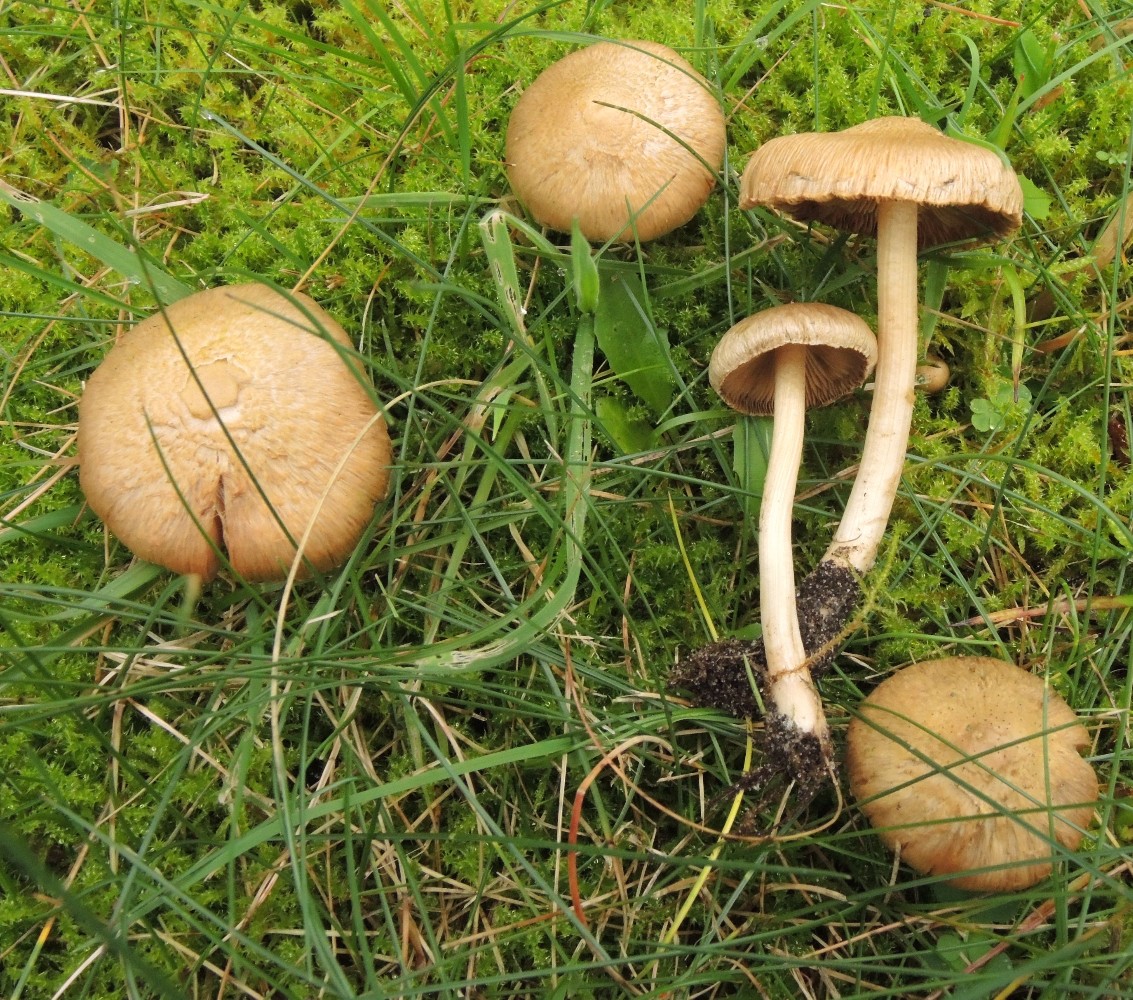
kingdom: Fungi
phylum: Basidiomycota
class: Agaricomycetes
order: Agaricales
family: Inocybaceae
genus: Inocybe
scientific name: Inocybe sindonia
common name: bleg trævlhat
